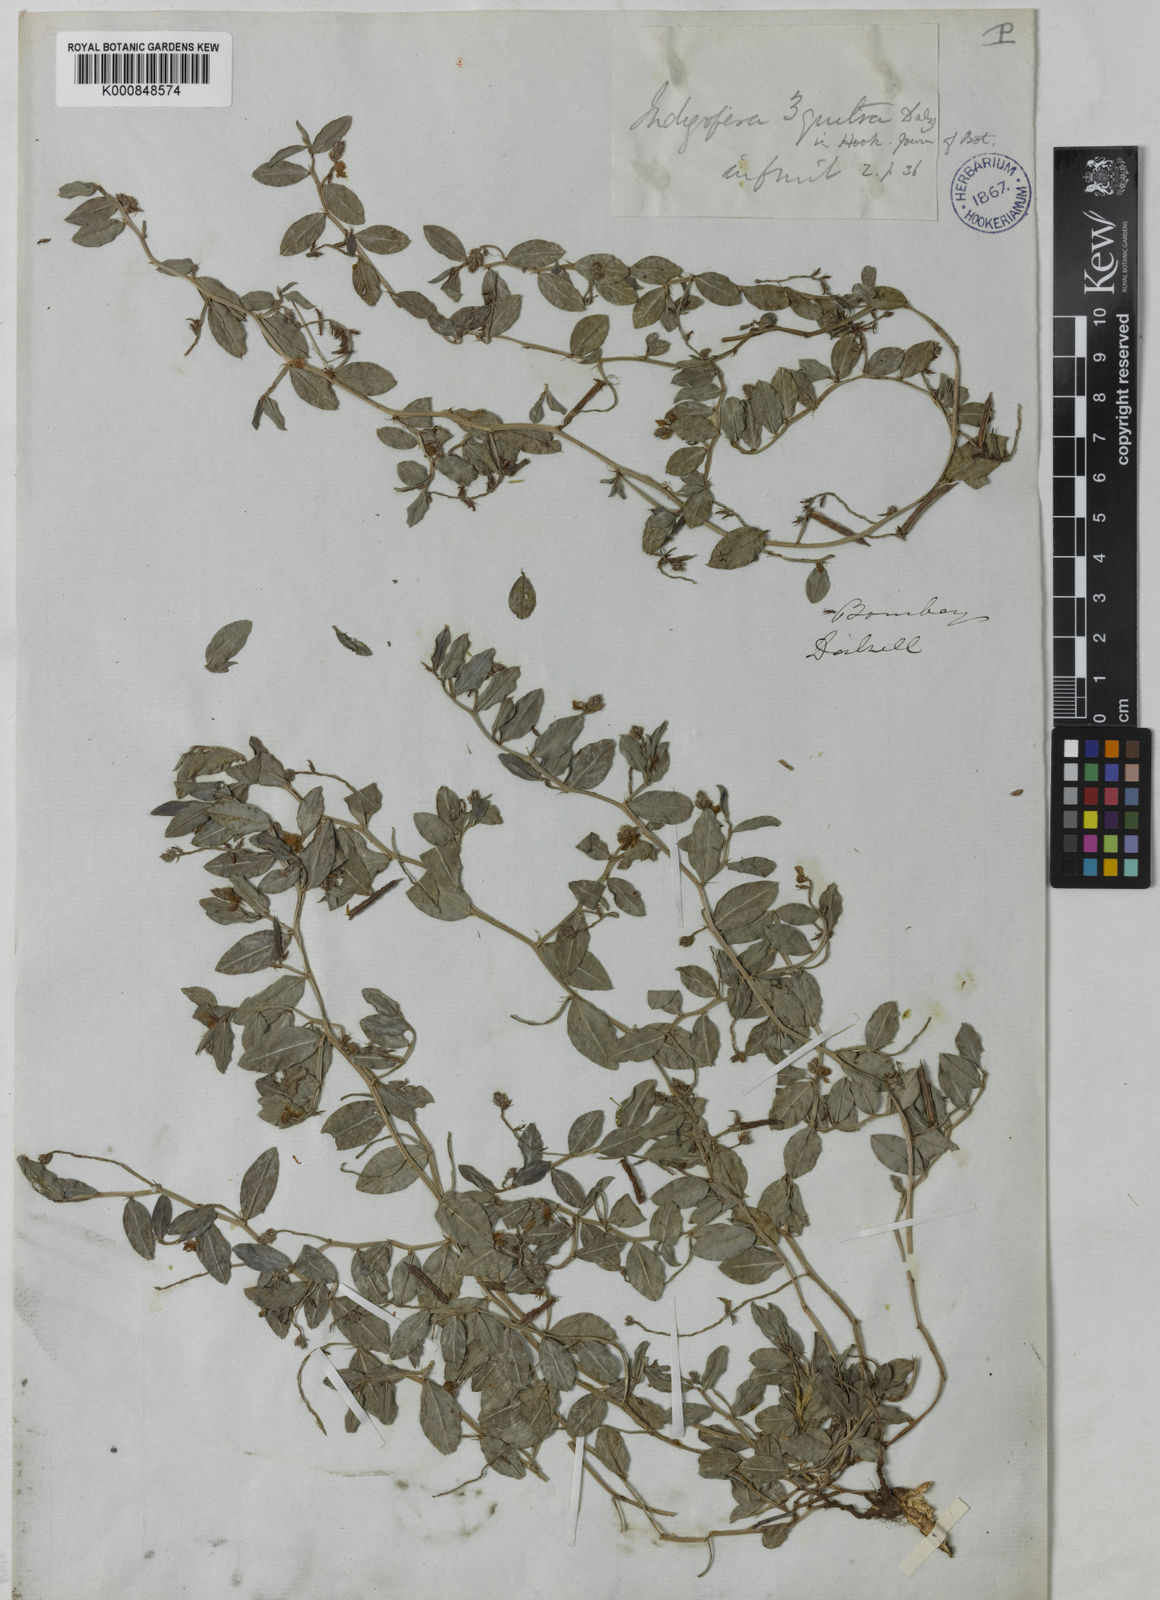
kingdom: Plantae
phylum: Tracheophyta
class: Magnoliopsida
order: Fabales
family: Fabaceae
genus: Indigofera
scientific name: Indigofera dalzelliana
